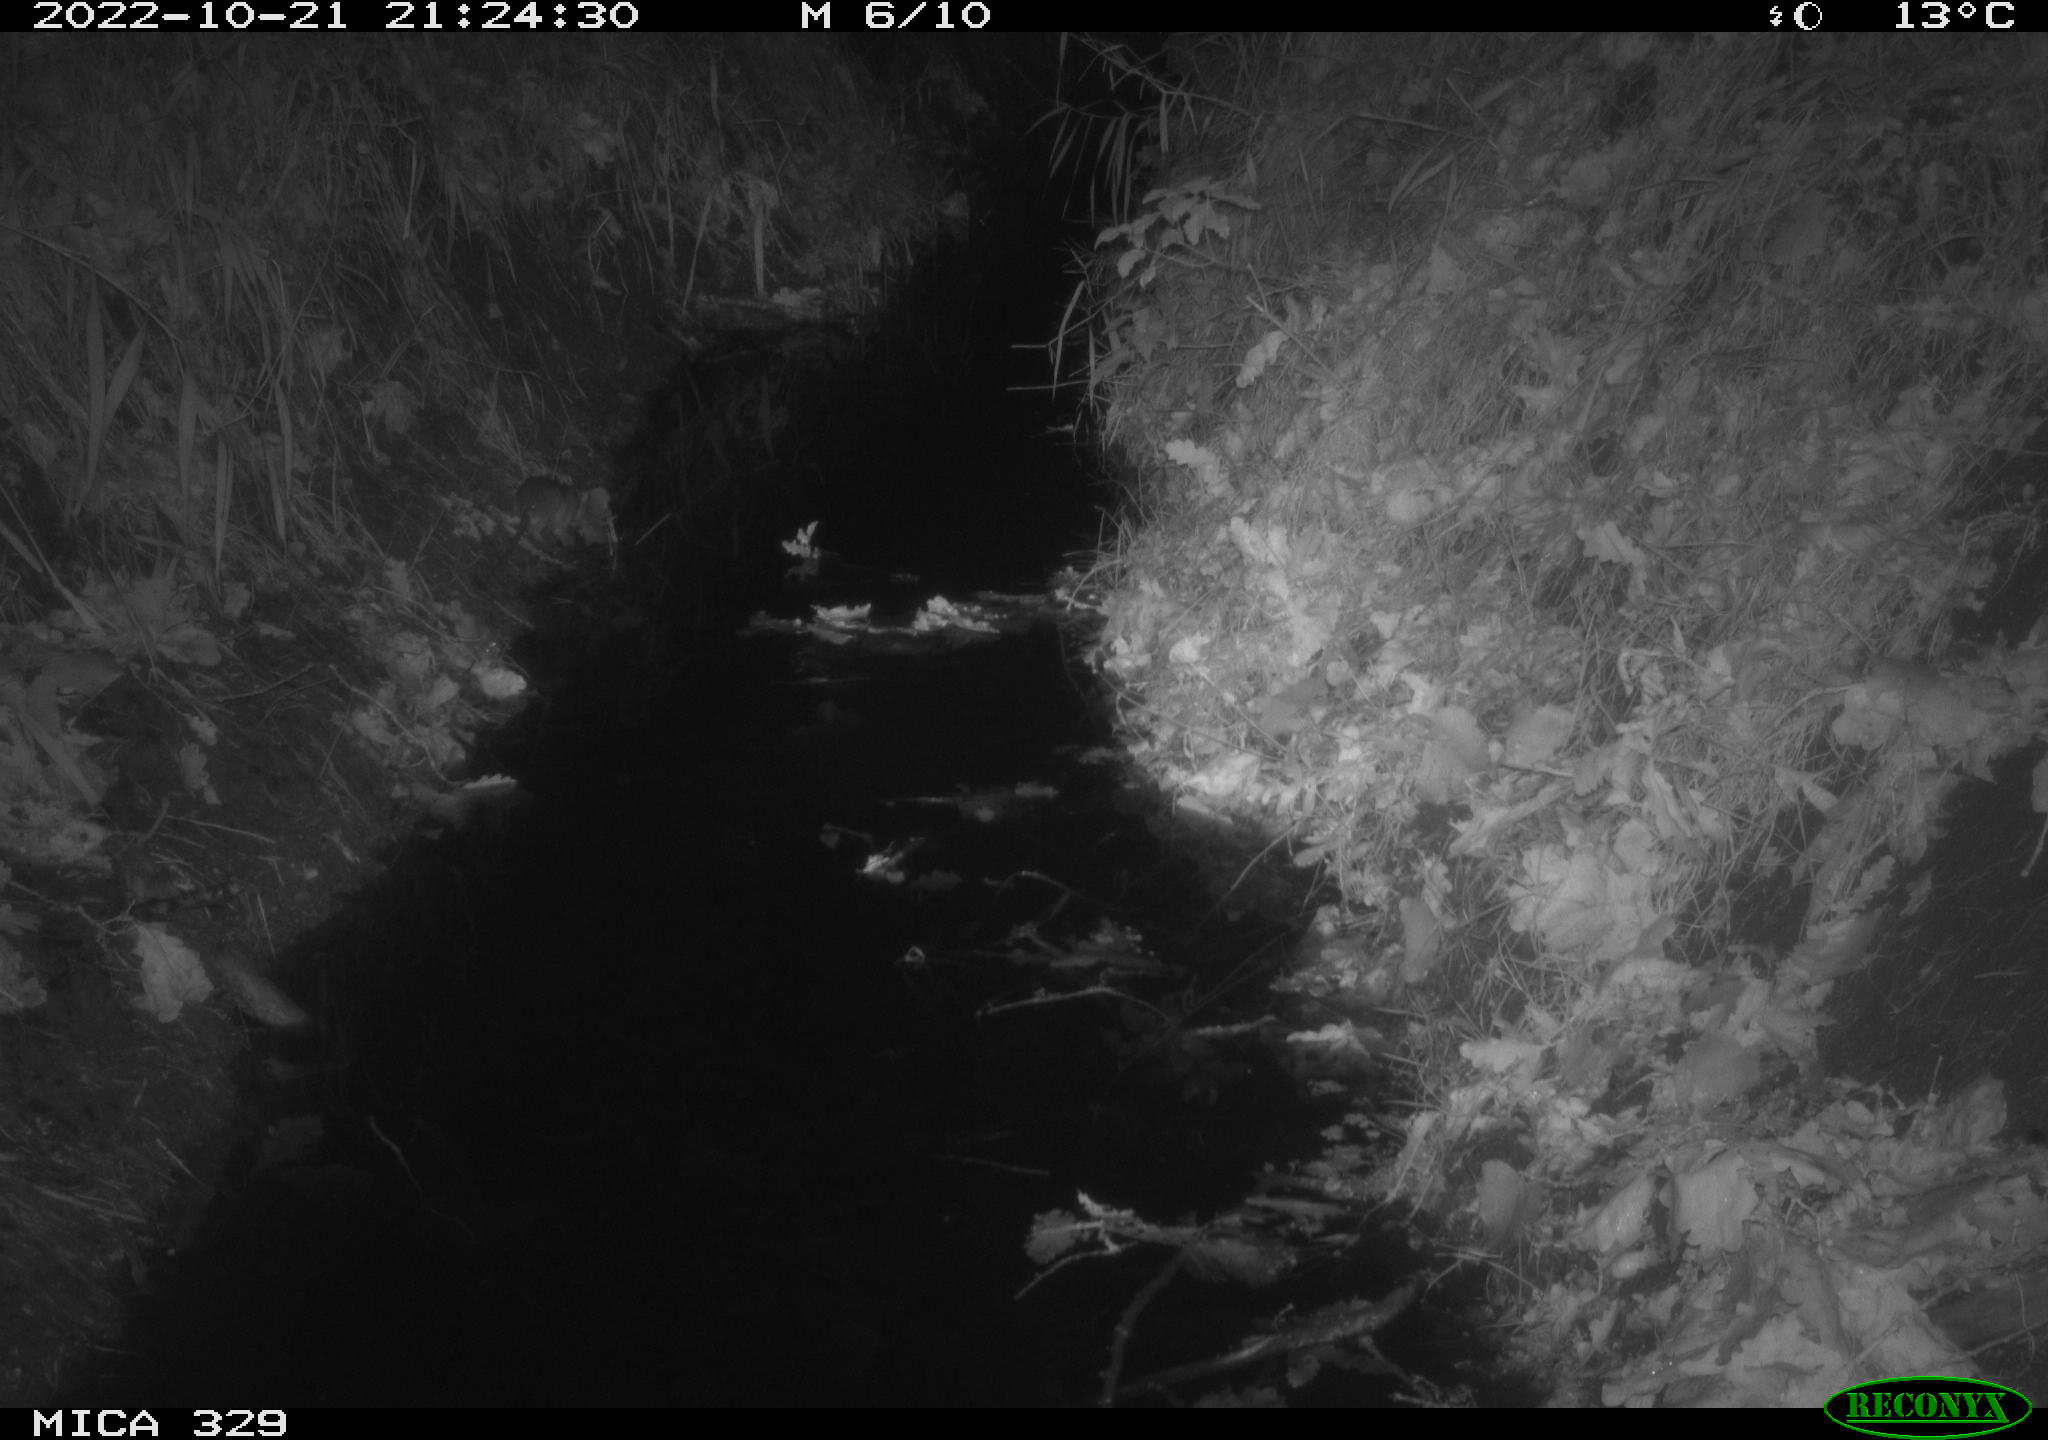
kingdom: Animalia
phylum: Chordata
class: Mammalia
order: Rodentia
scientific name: Rodentia
